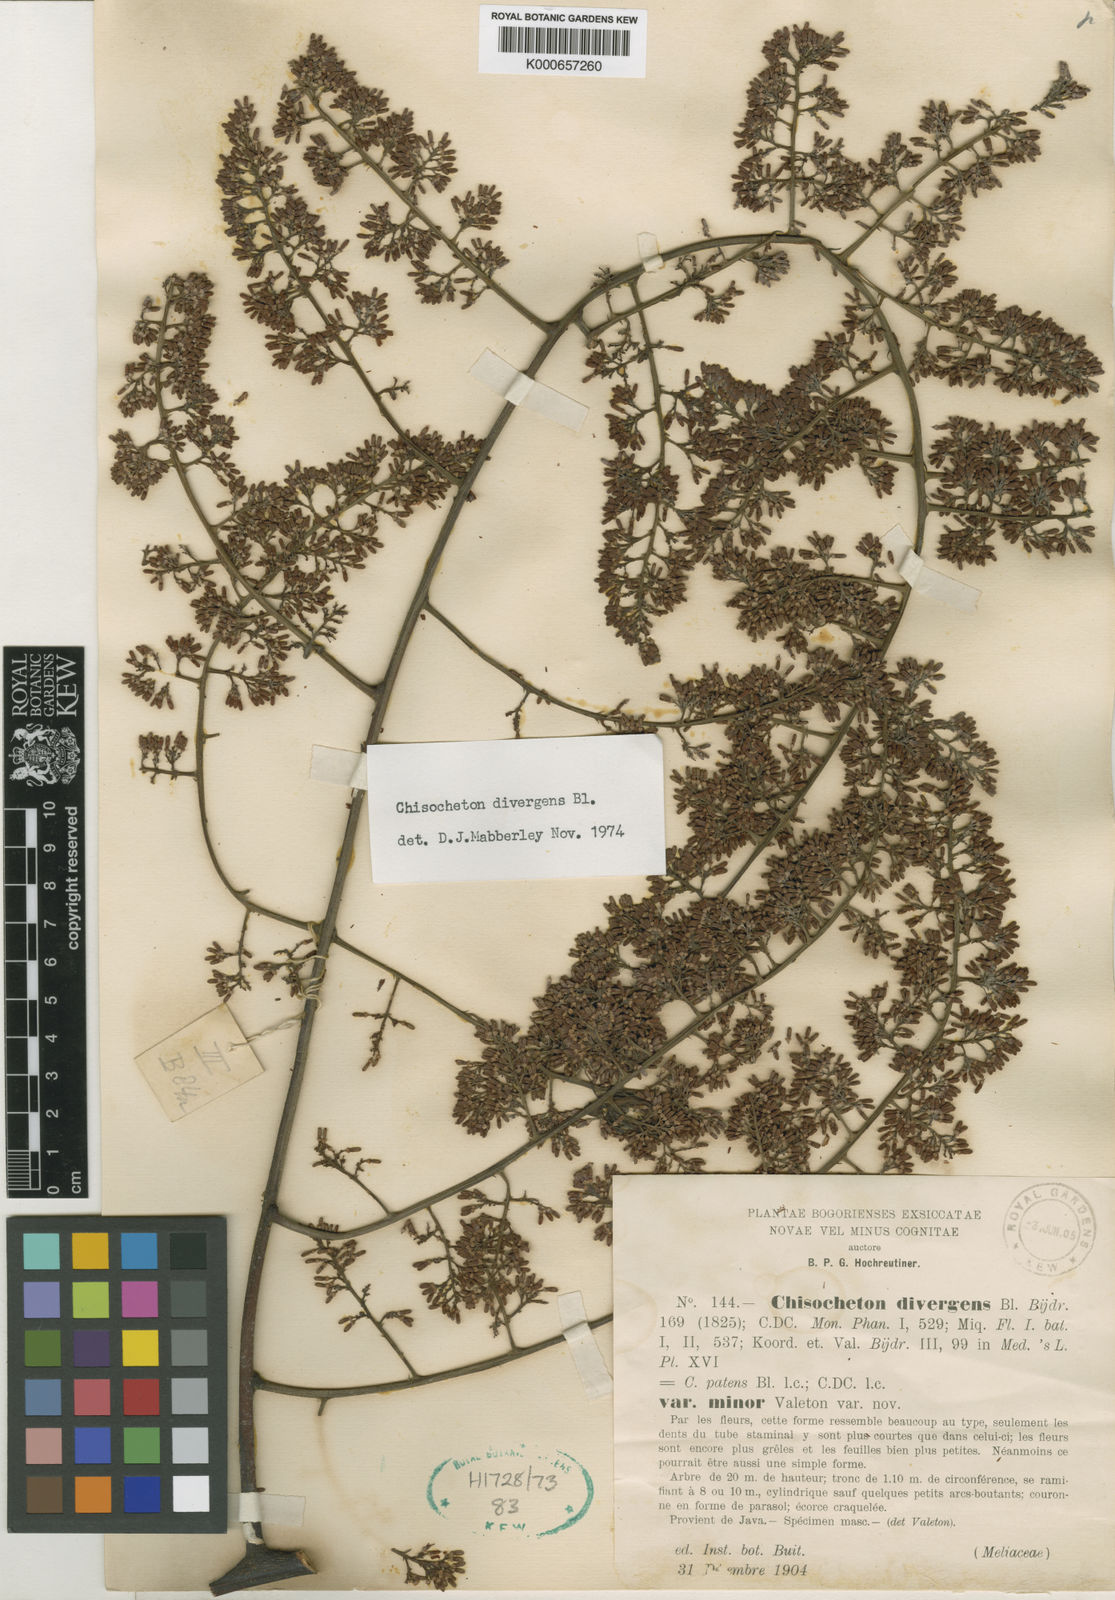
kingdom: Plantae
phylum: Tracheophyta
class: Magnoliopsida
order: Sapindales
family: Meliaceae
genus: Chisocheton
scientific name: Chisocheton patens
